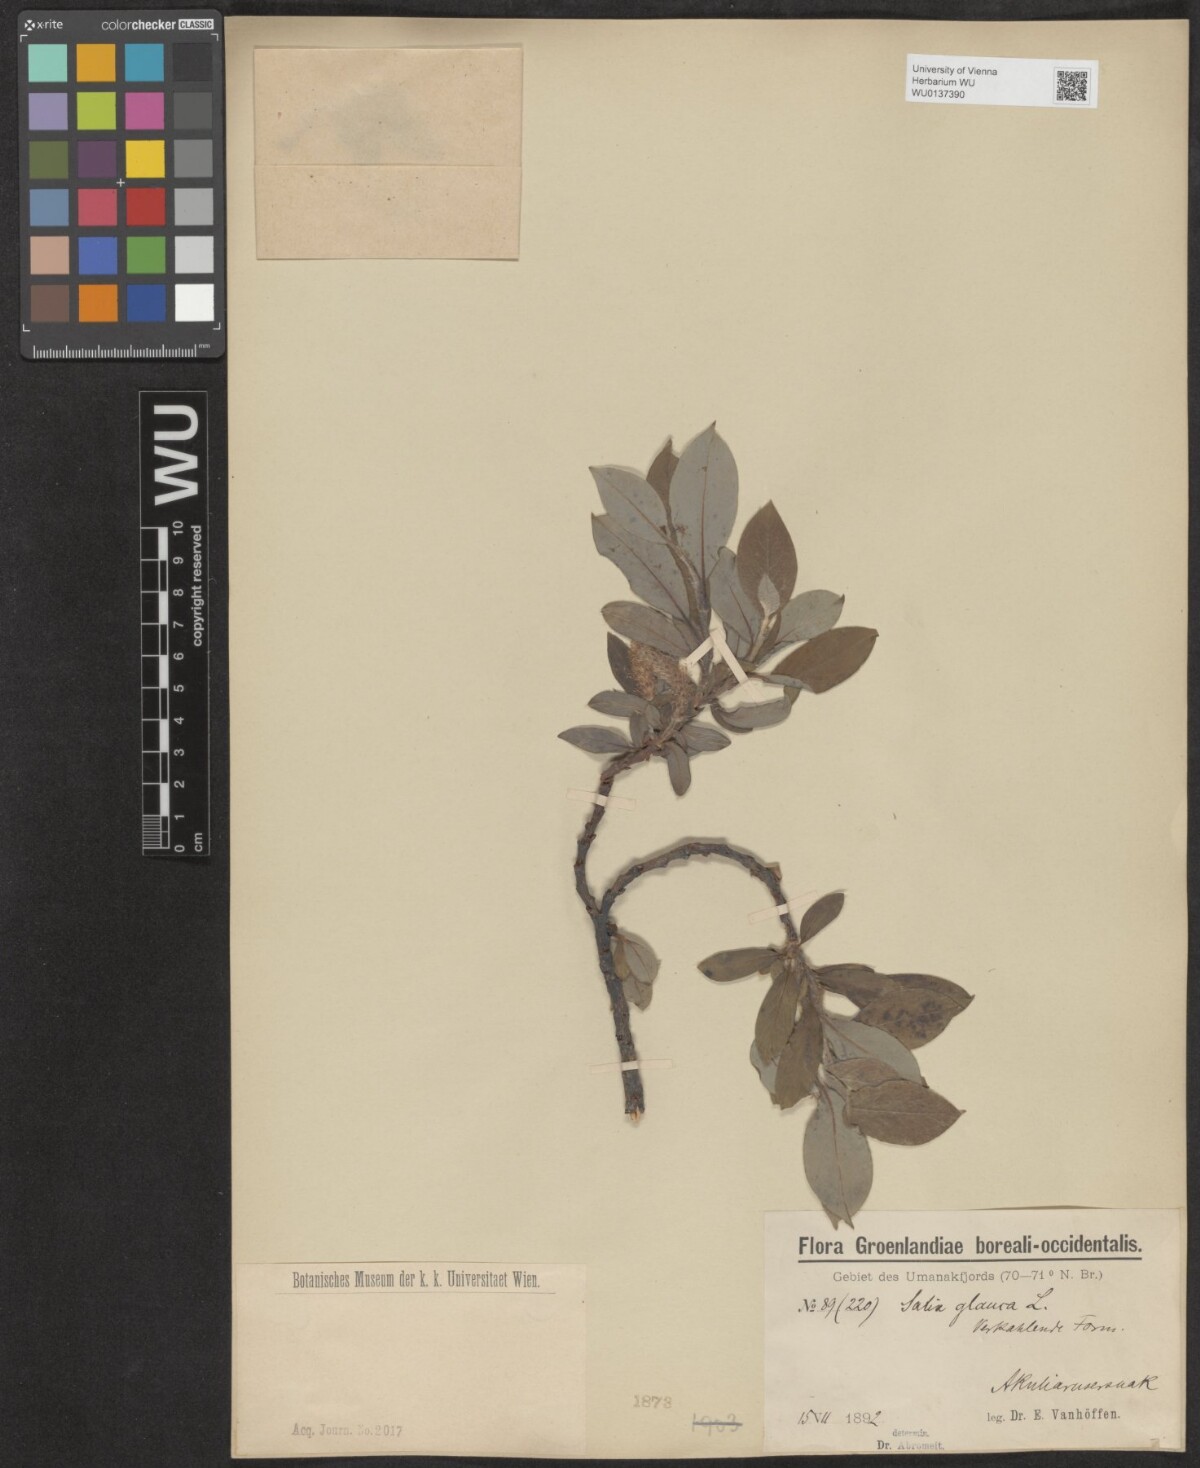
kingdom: Plantae
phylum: Tracheophyta
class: Magnoliopsida
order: Malpighiales
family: Salicaceae
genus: Salix
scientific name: Salix glauca
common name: Glaucous willow
